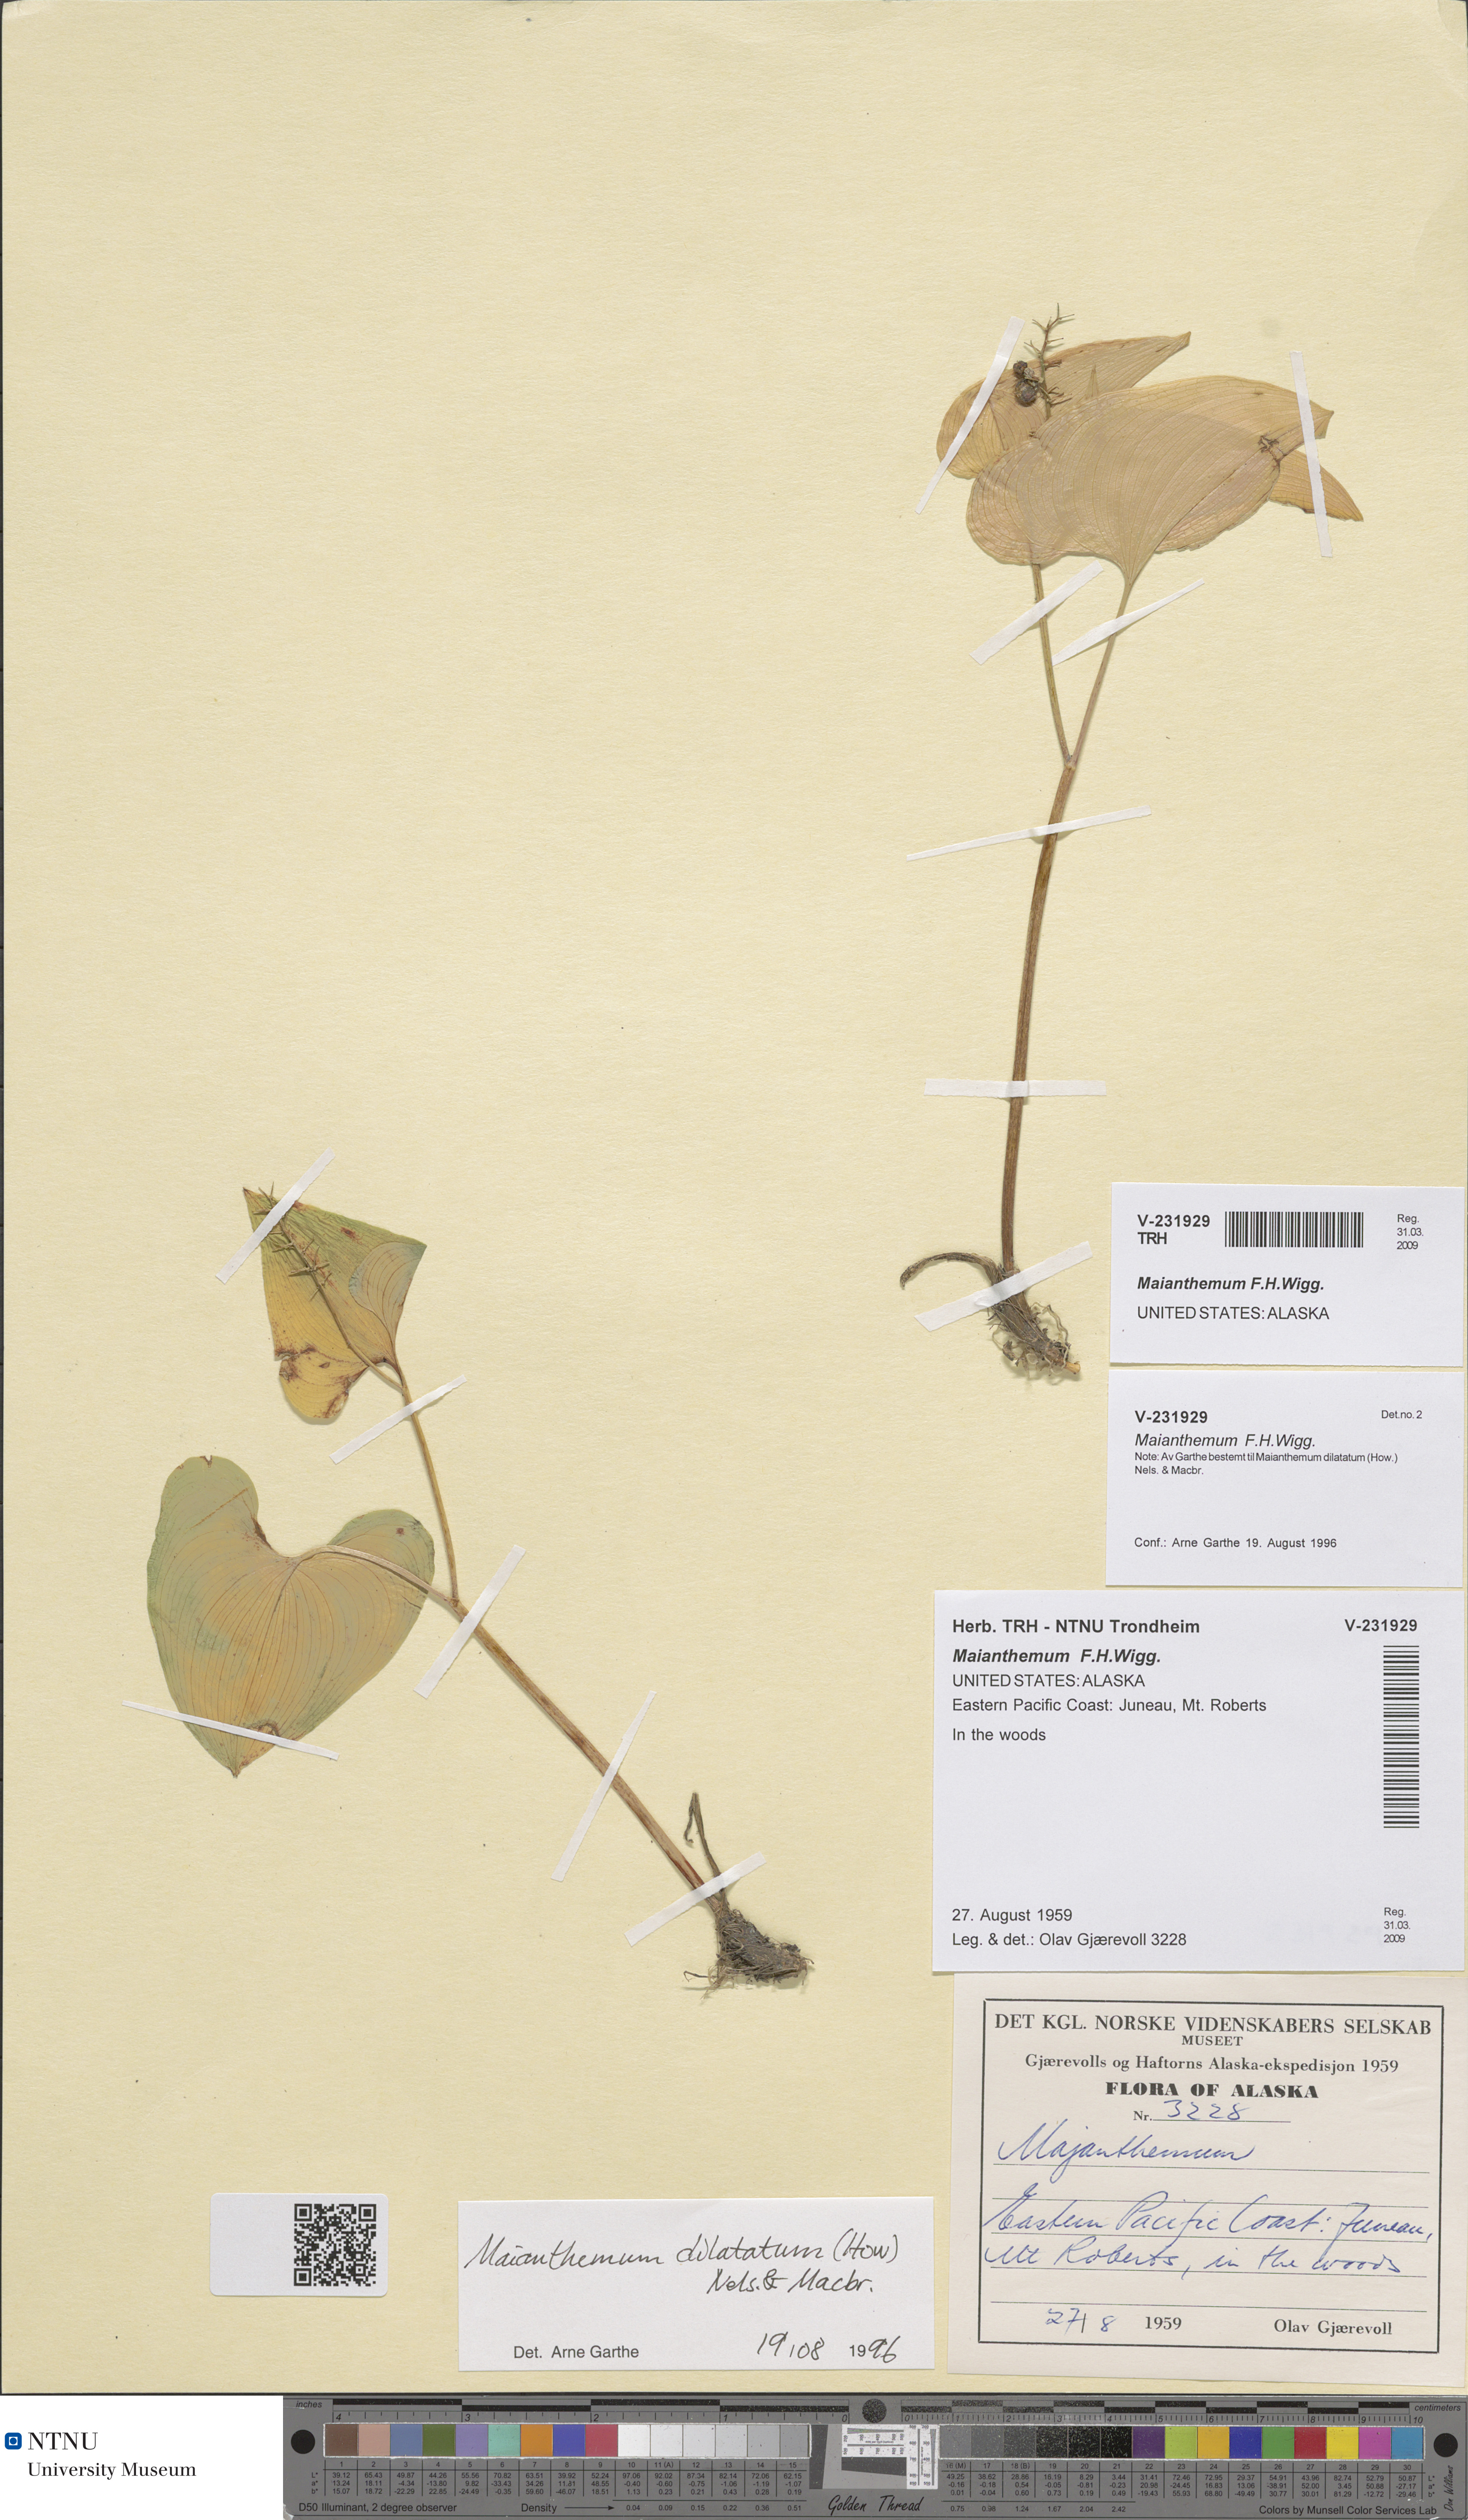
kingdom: Plantae
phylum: Tracheophyta
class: Liliopsida
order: Asparagales
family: Asparagaceae
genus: Maianthemum
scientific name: Maianthemum
